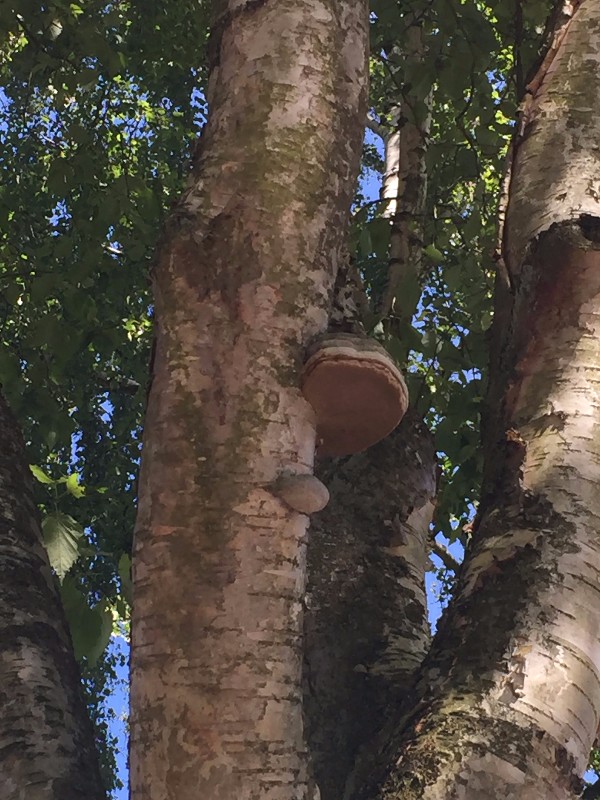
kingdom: Fungi
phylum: Basidiomycota
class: Agaricomycetes
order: Polyporales
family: Polyporaceae
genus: Fomes
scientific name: Fomes fomentarius
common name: tøndersvamp
